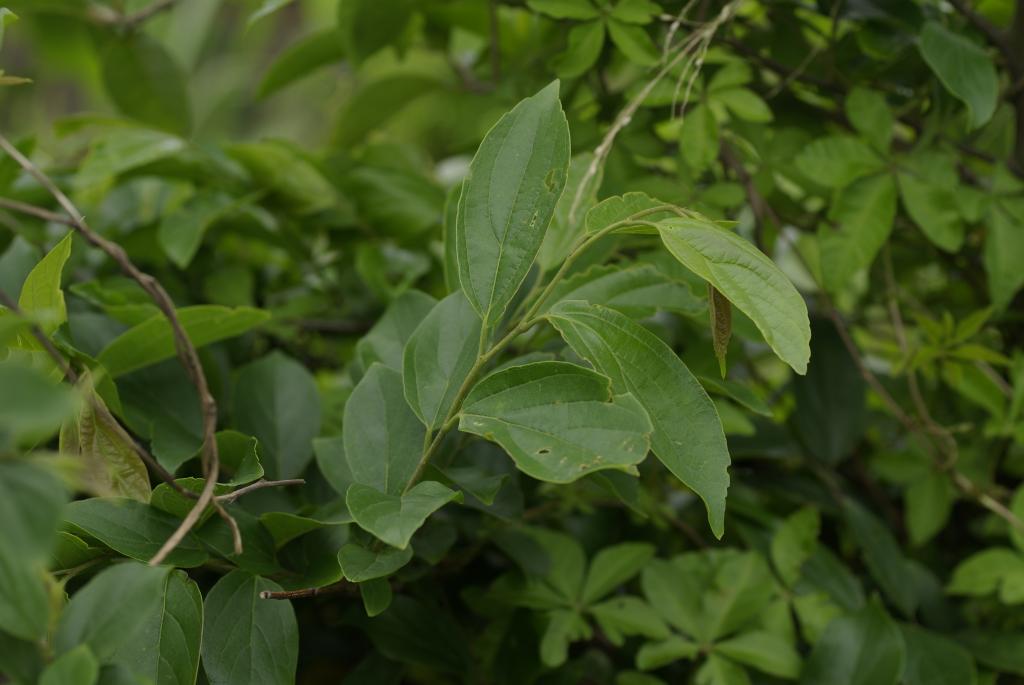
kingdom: Plantae
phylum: Tracheophyta
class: Magnoliopsida
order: Rosales
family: Cannabaceae
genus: Celtis
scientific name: Celtis sinensis
